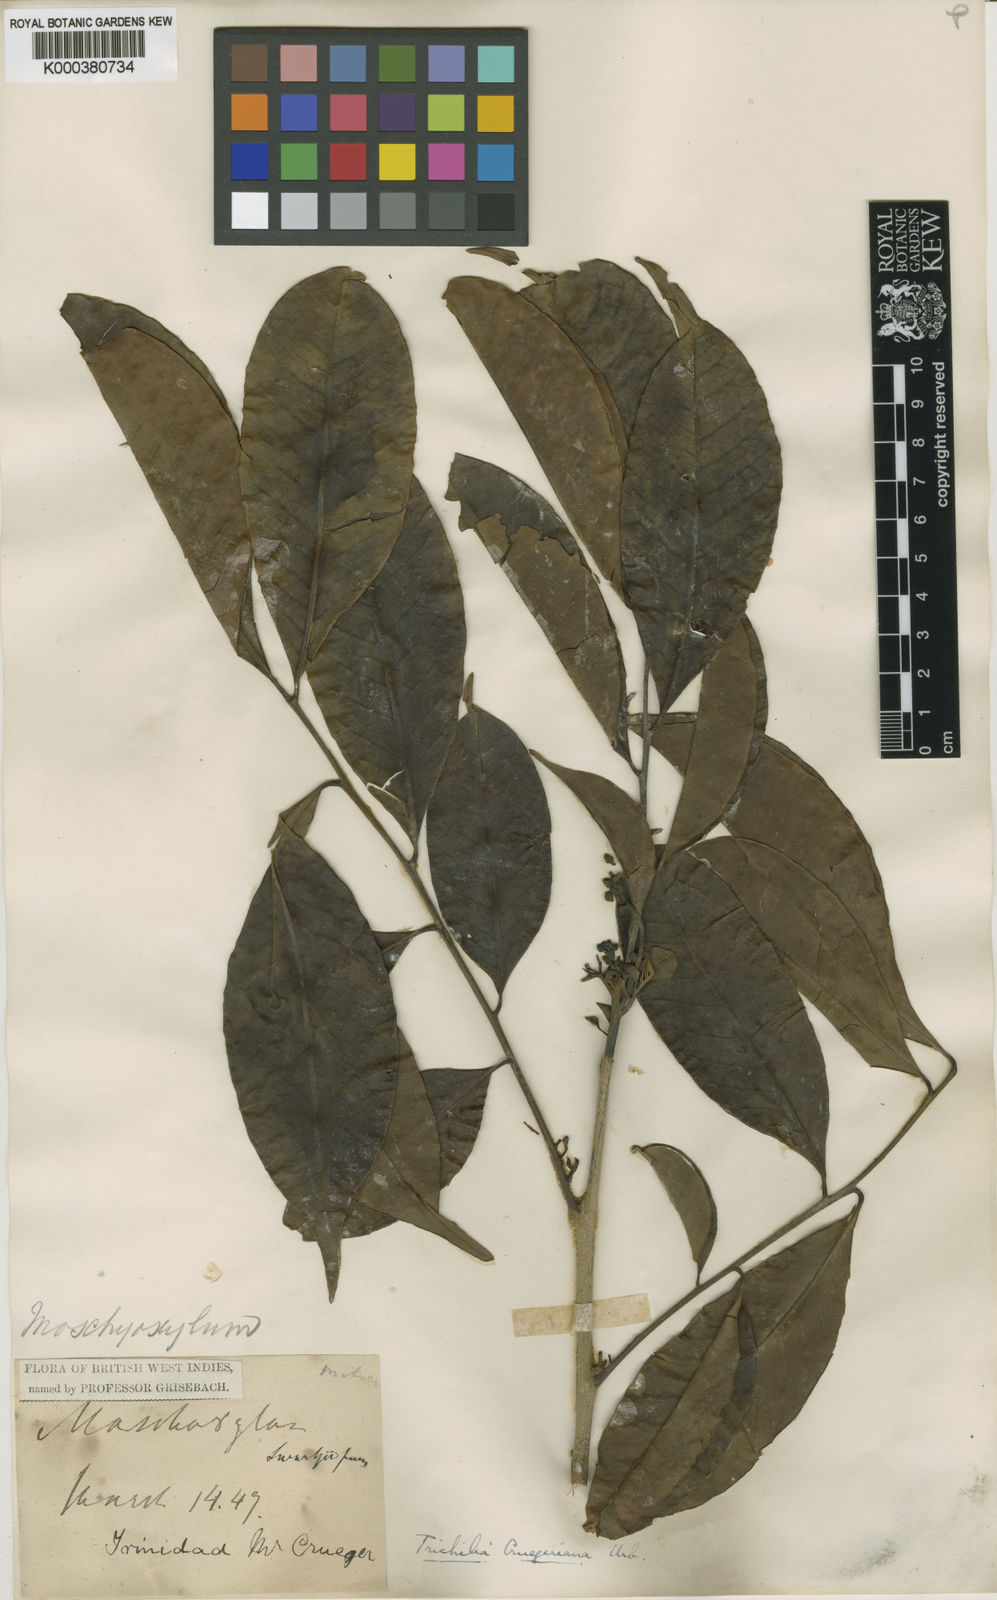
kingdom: Plantae
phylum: Tracheophyta
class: Magnoliopsida
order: Sapindales
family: Meliaceae
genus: Trichilia
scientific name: Trichilia pleeana
